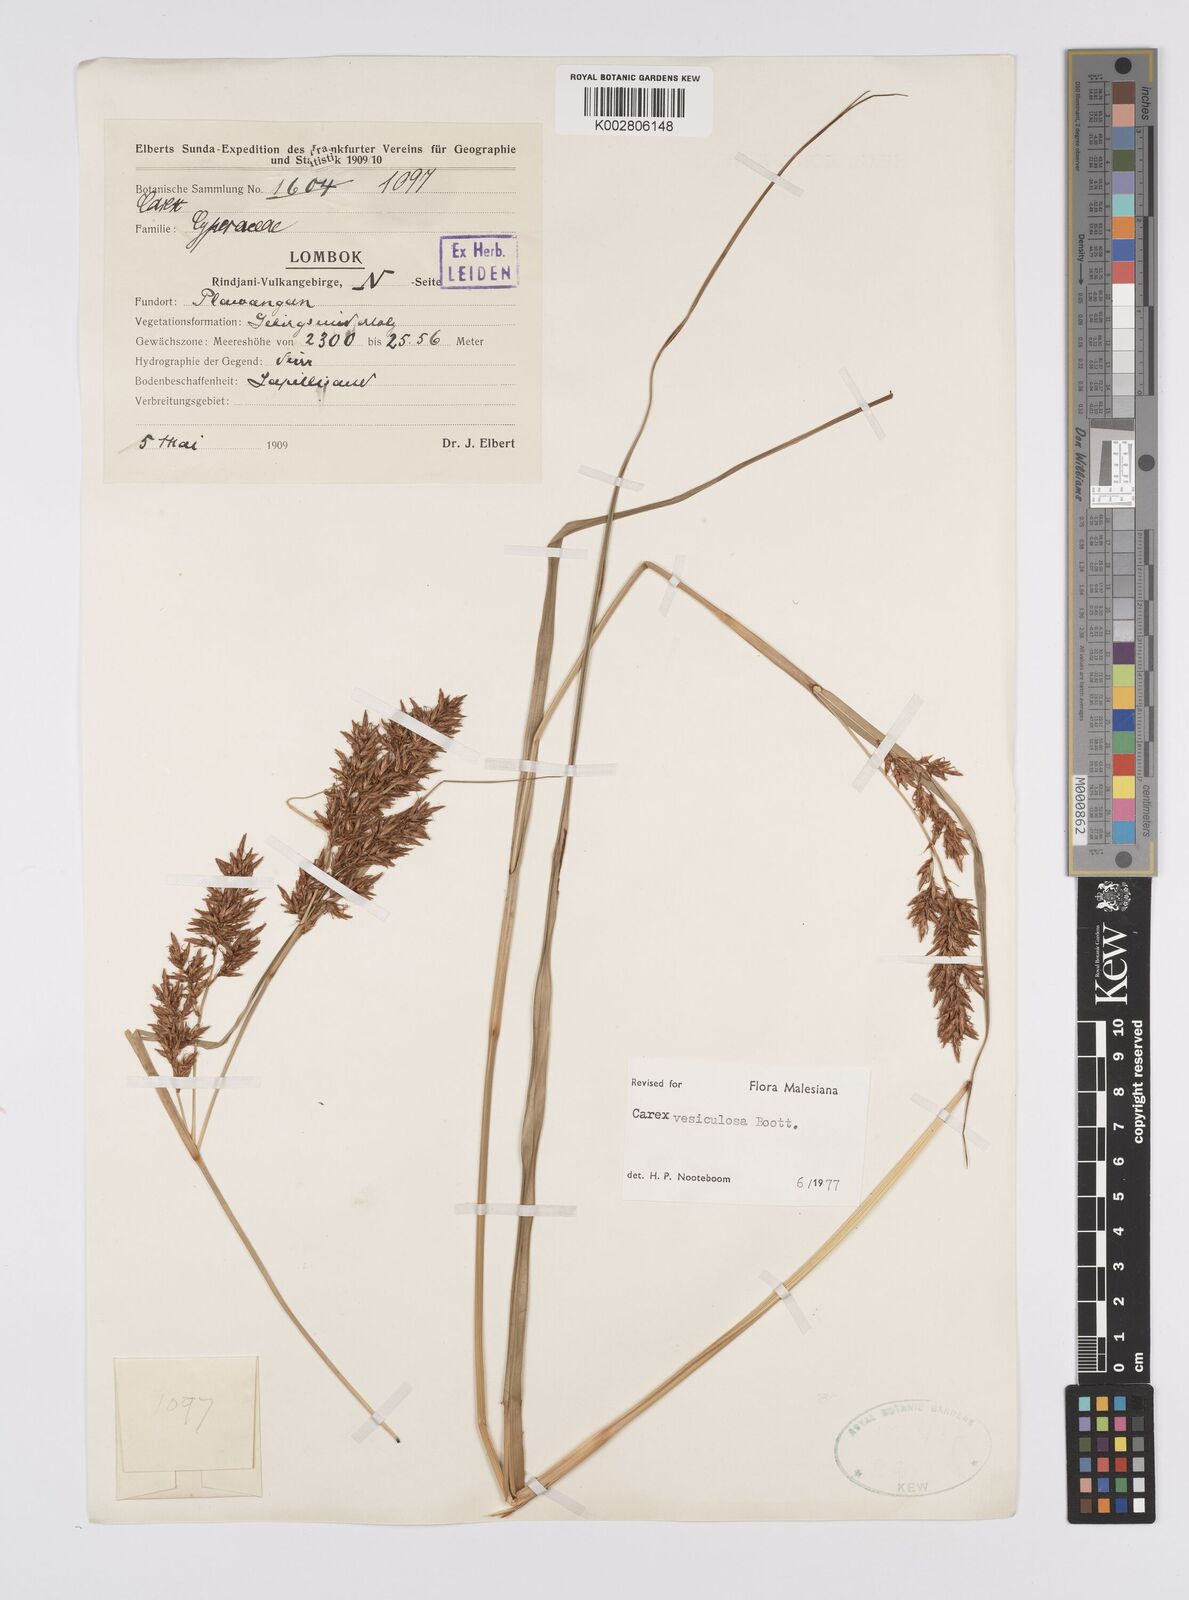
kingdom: Plantae
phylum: Tracheophyta
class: Liliopsida
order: Poales
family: Cyperaceae
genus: Carex
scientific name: Carex vesiculosa
